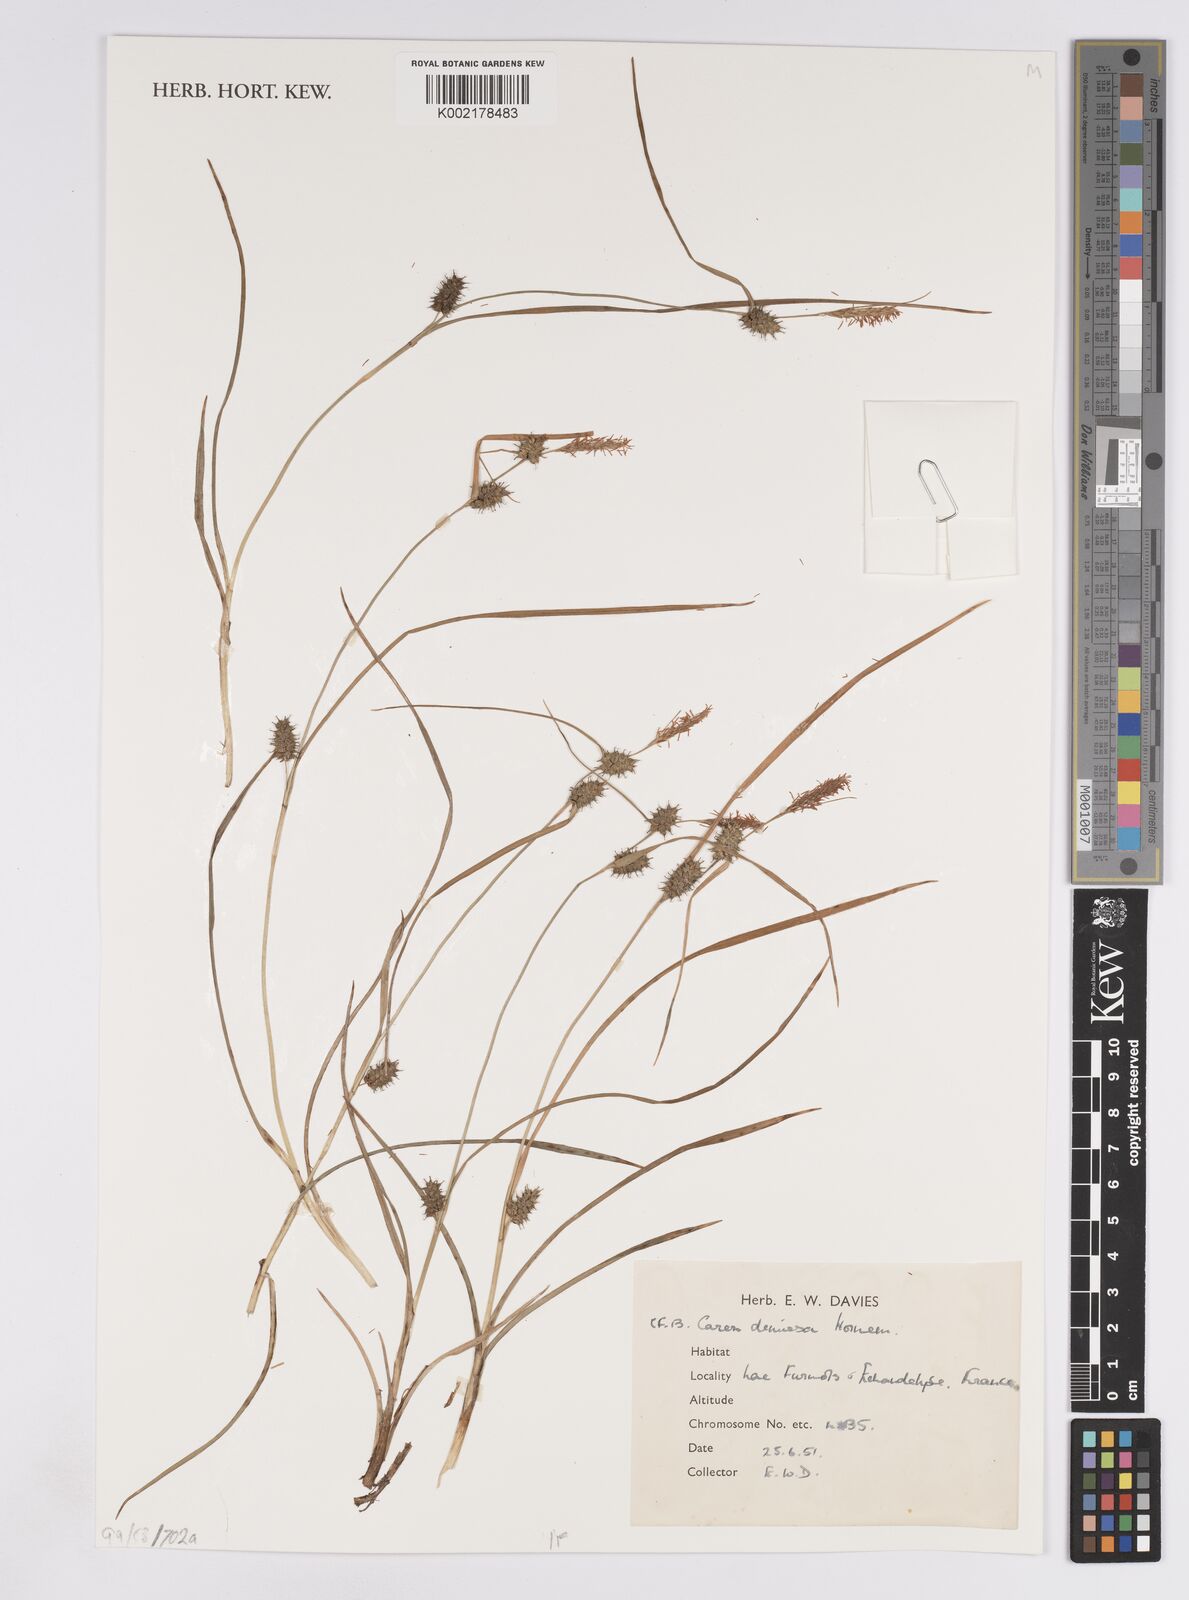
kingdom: Plantae
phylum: Tracheophyta
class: Liliopsida
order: Poales
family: Cyperaceae
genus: Carex
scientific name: Carex demissa
